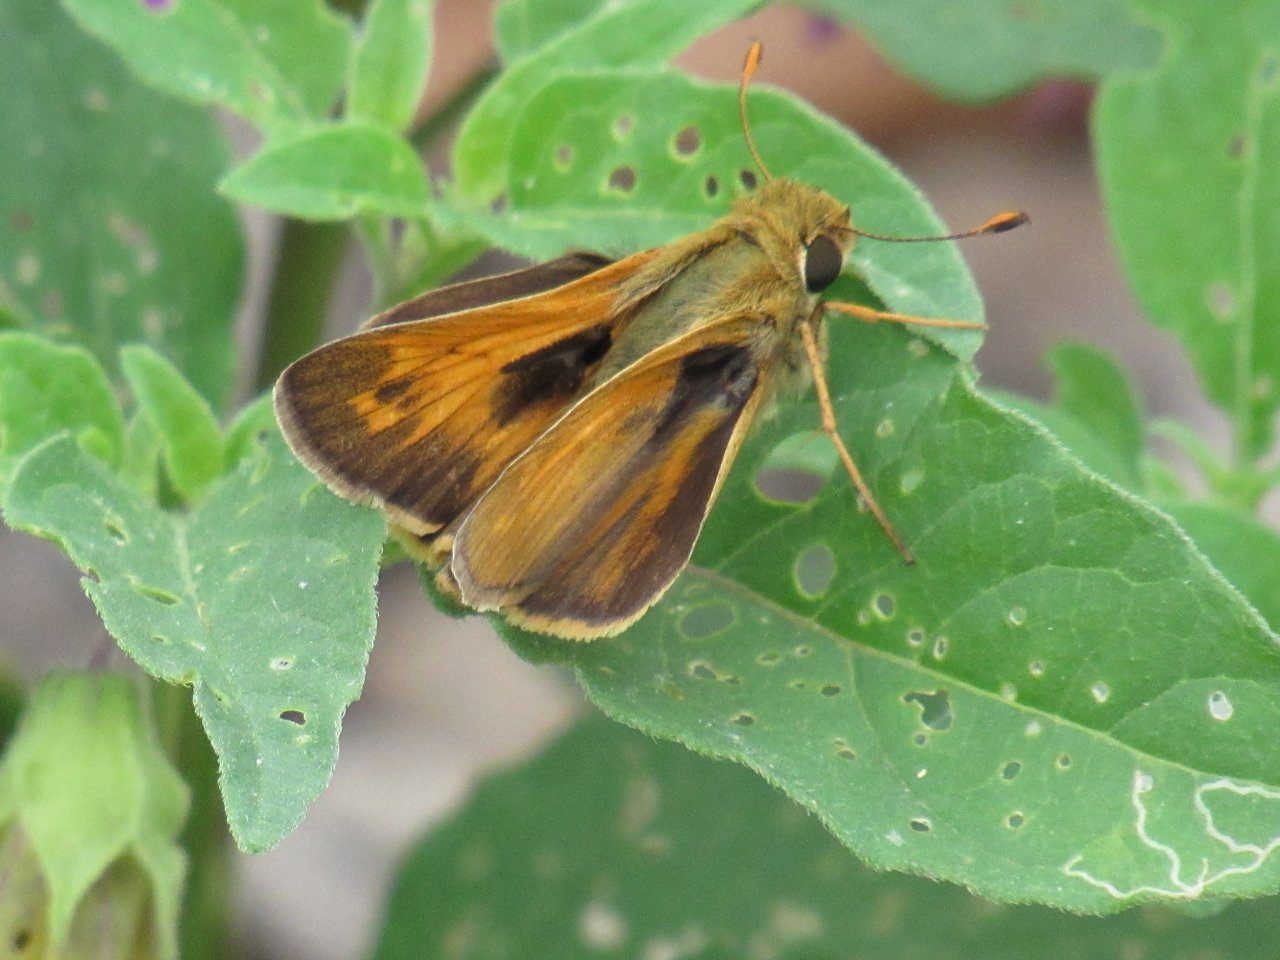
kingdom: Animalia
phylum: Arthropoda
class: Insecta
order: Lepidoptera
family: Hesperiidae
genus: Atalopedes
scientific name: Atalopedes campestris
